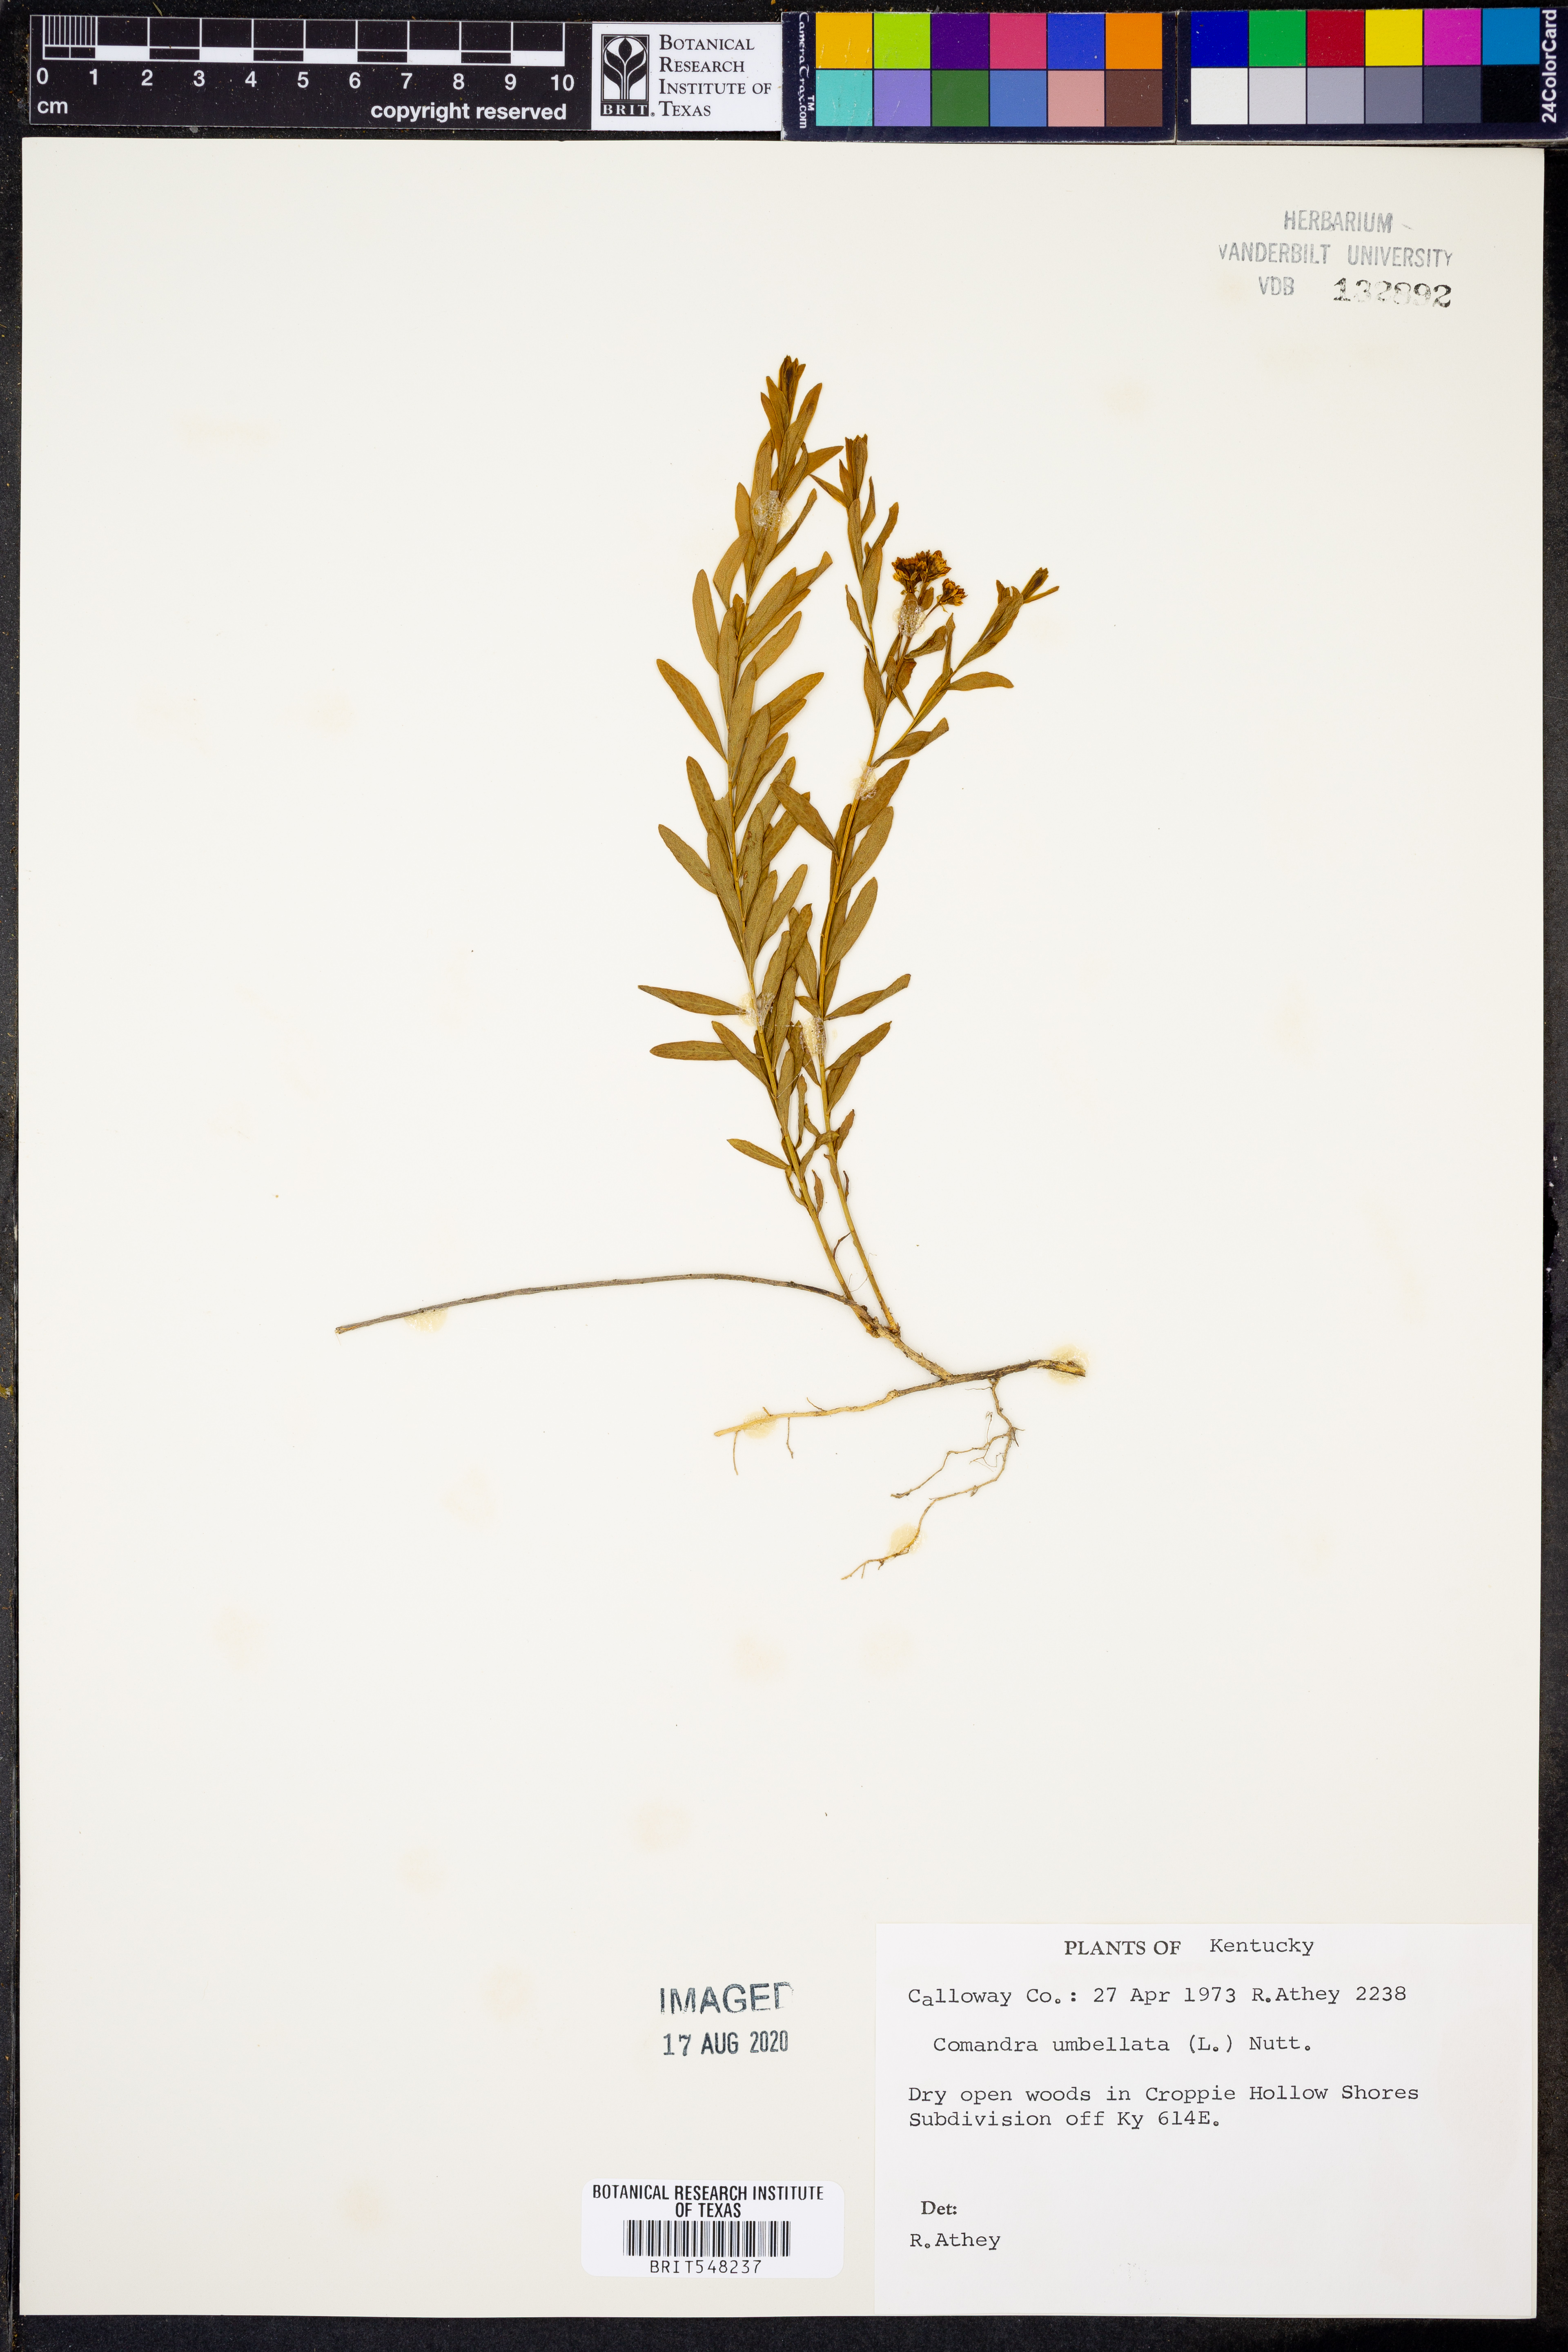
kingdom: Plantae
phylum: Tracheophyta
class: Magnoliopsida
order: Santalales
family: Comandraceae
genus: Comandra
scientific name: Comandra umbellata
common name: Bastard toadflax
